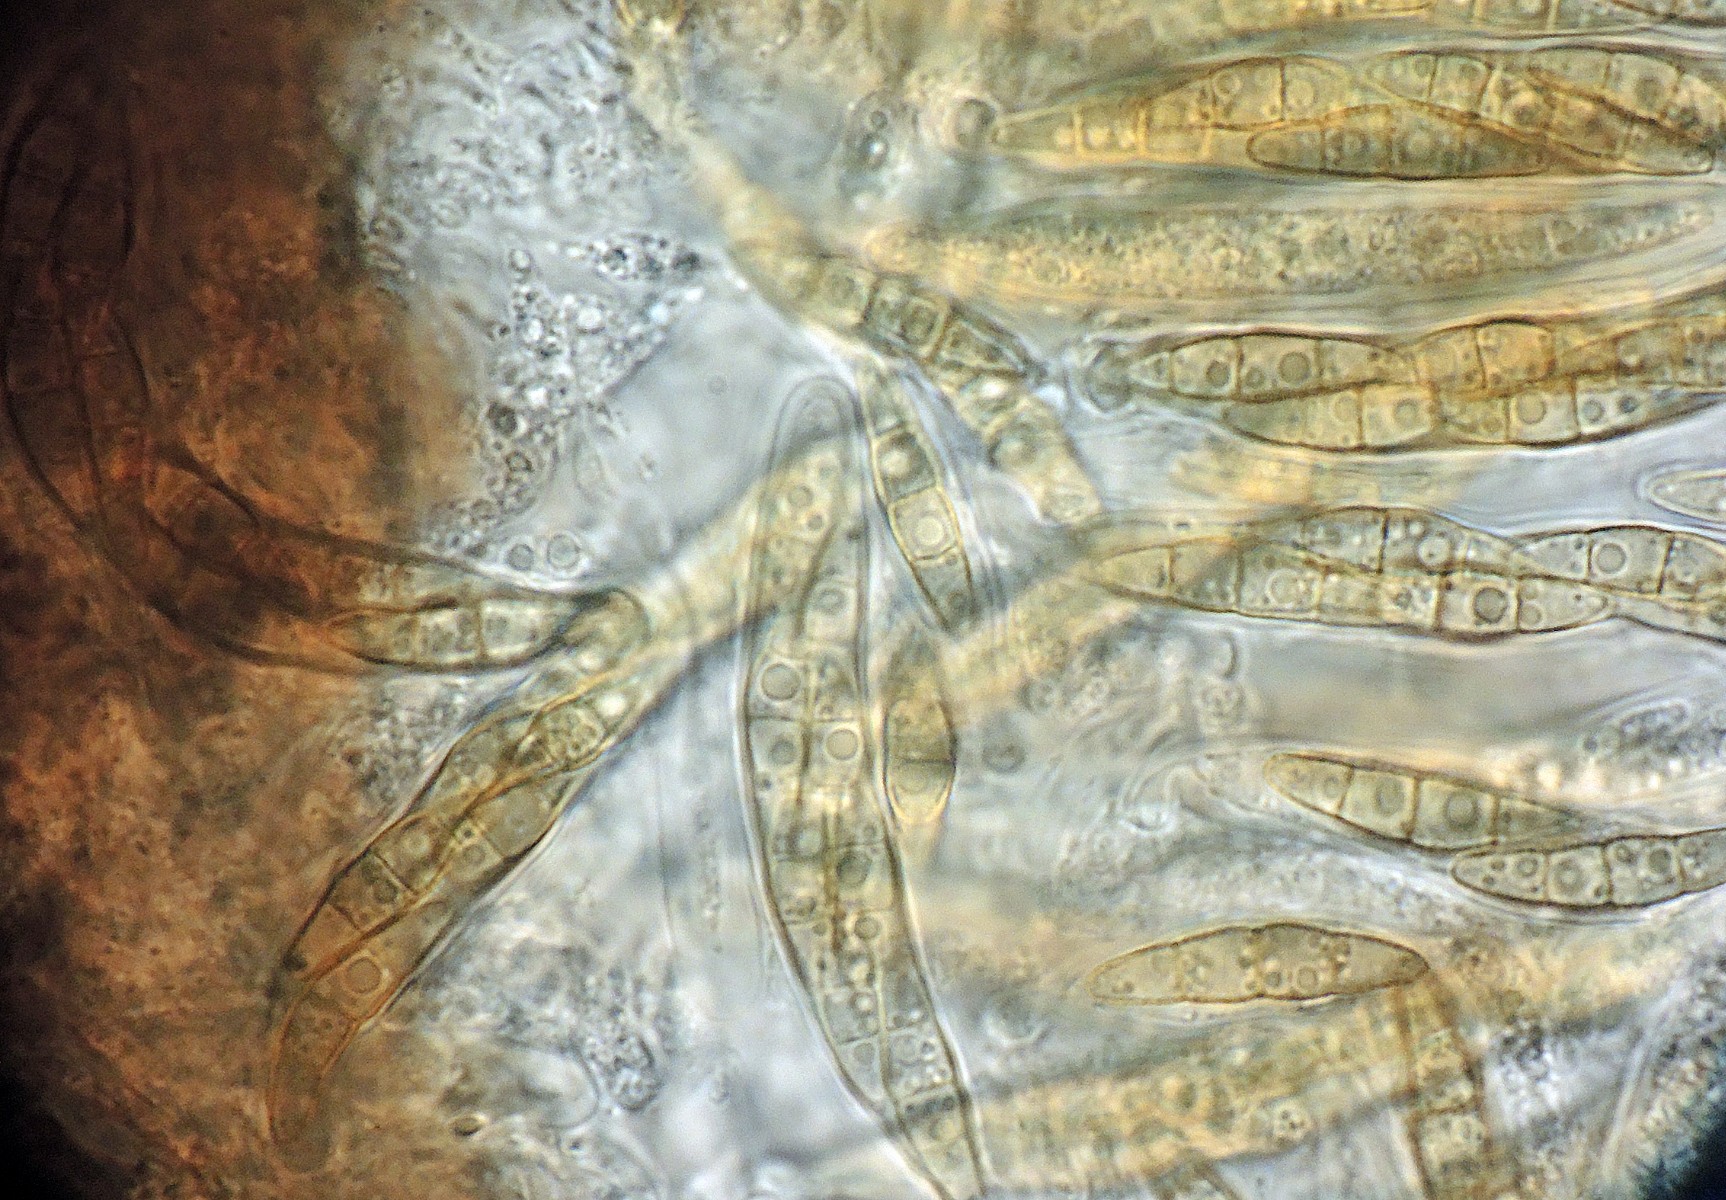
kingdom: Fungi
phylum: Ascomycota
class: Dothideomycetes
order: Pleosporales
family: Phaeosphaeriaceae
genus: Phaeosphaeria
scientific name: Phaeosphaeria
